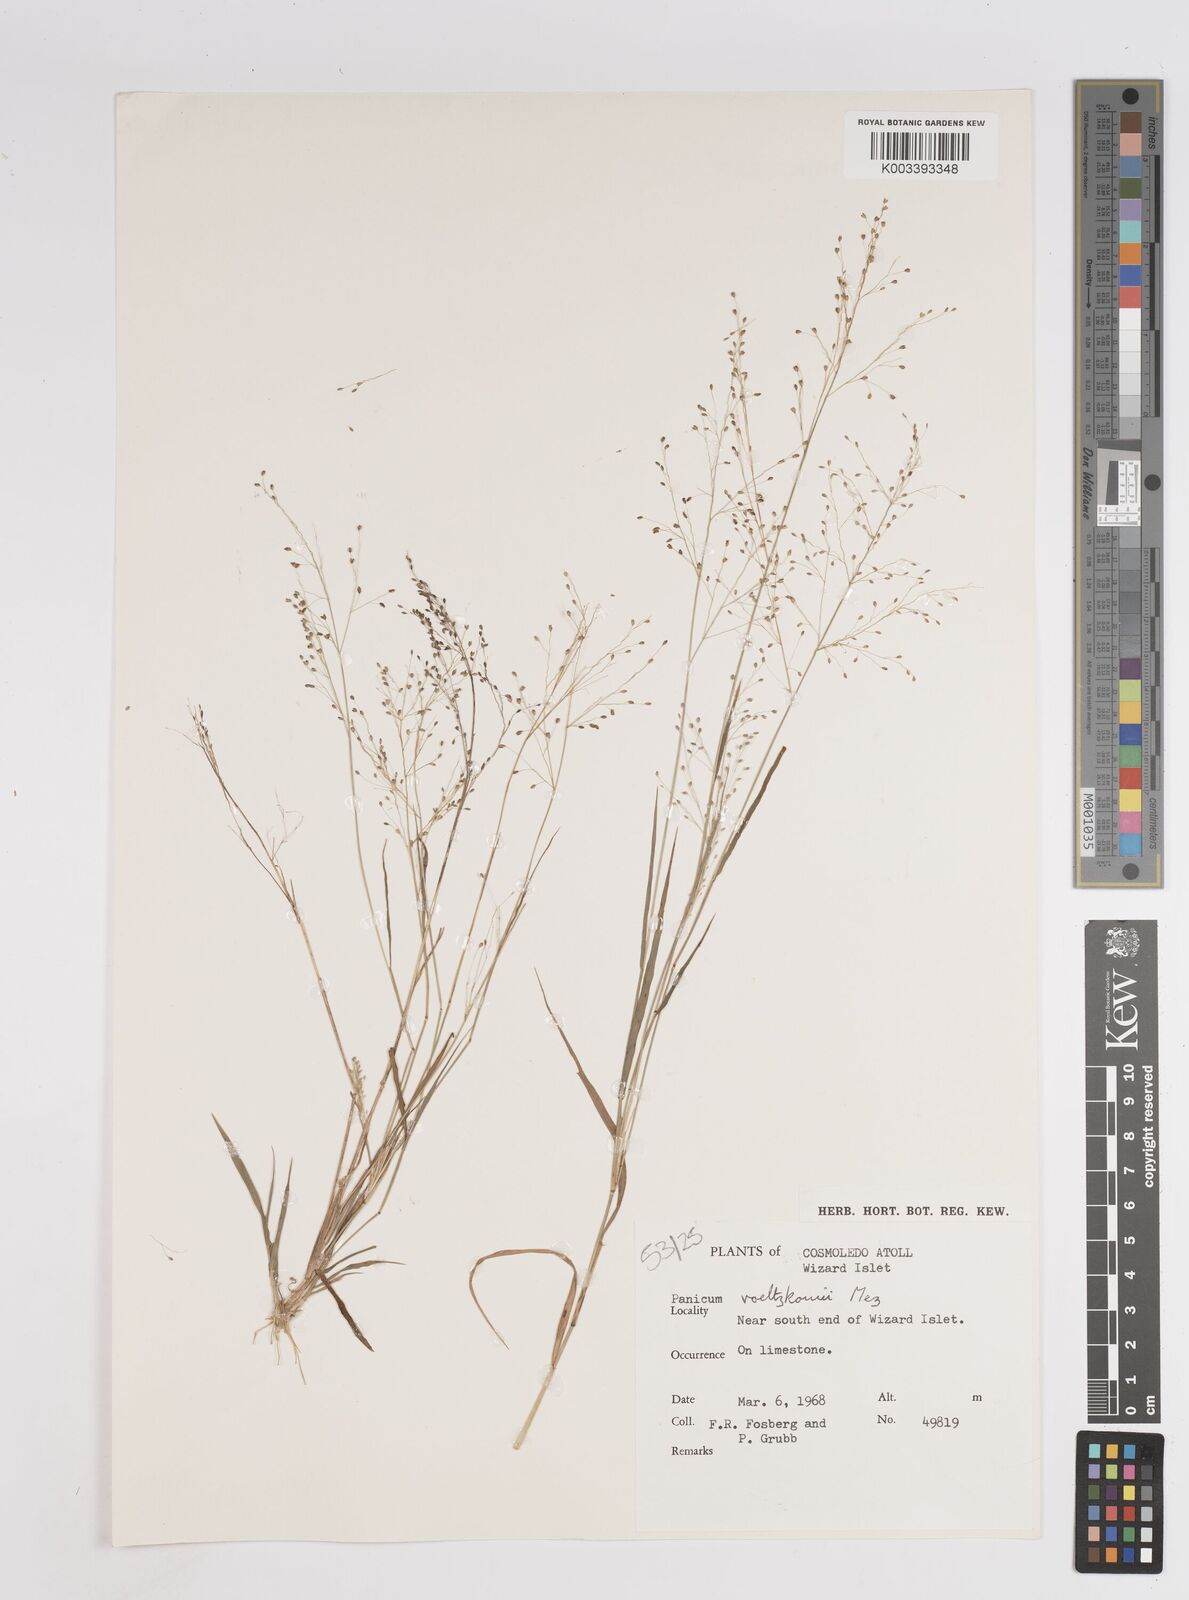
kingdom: Plantae
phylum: Tracheophyta
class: Liliopsida
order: Poales
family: Poaceae
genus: Panicum
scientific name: Panicum voeltzkowii
